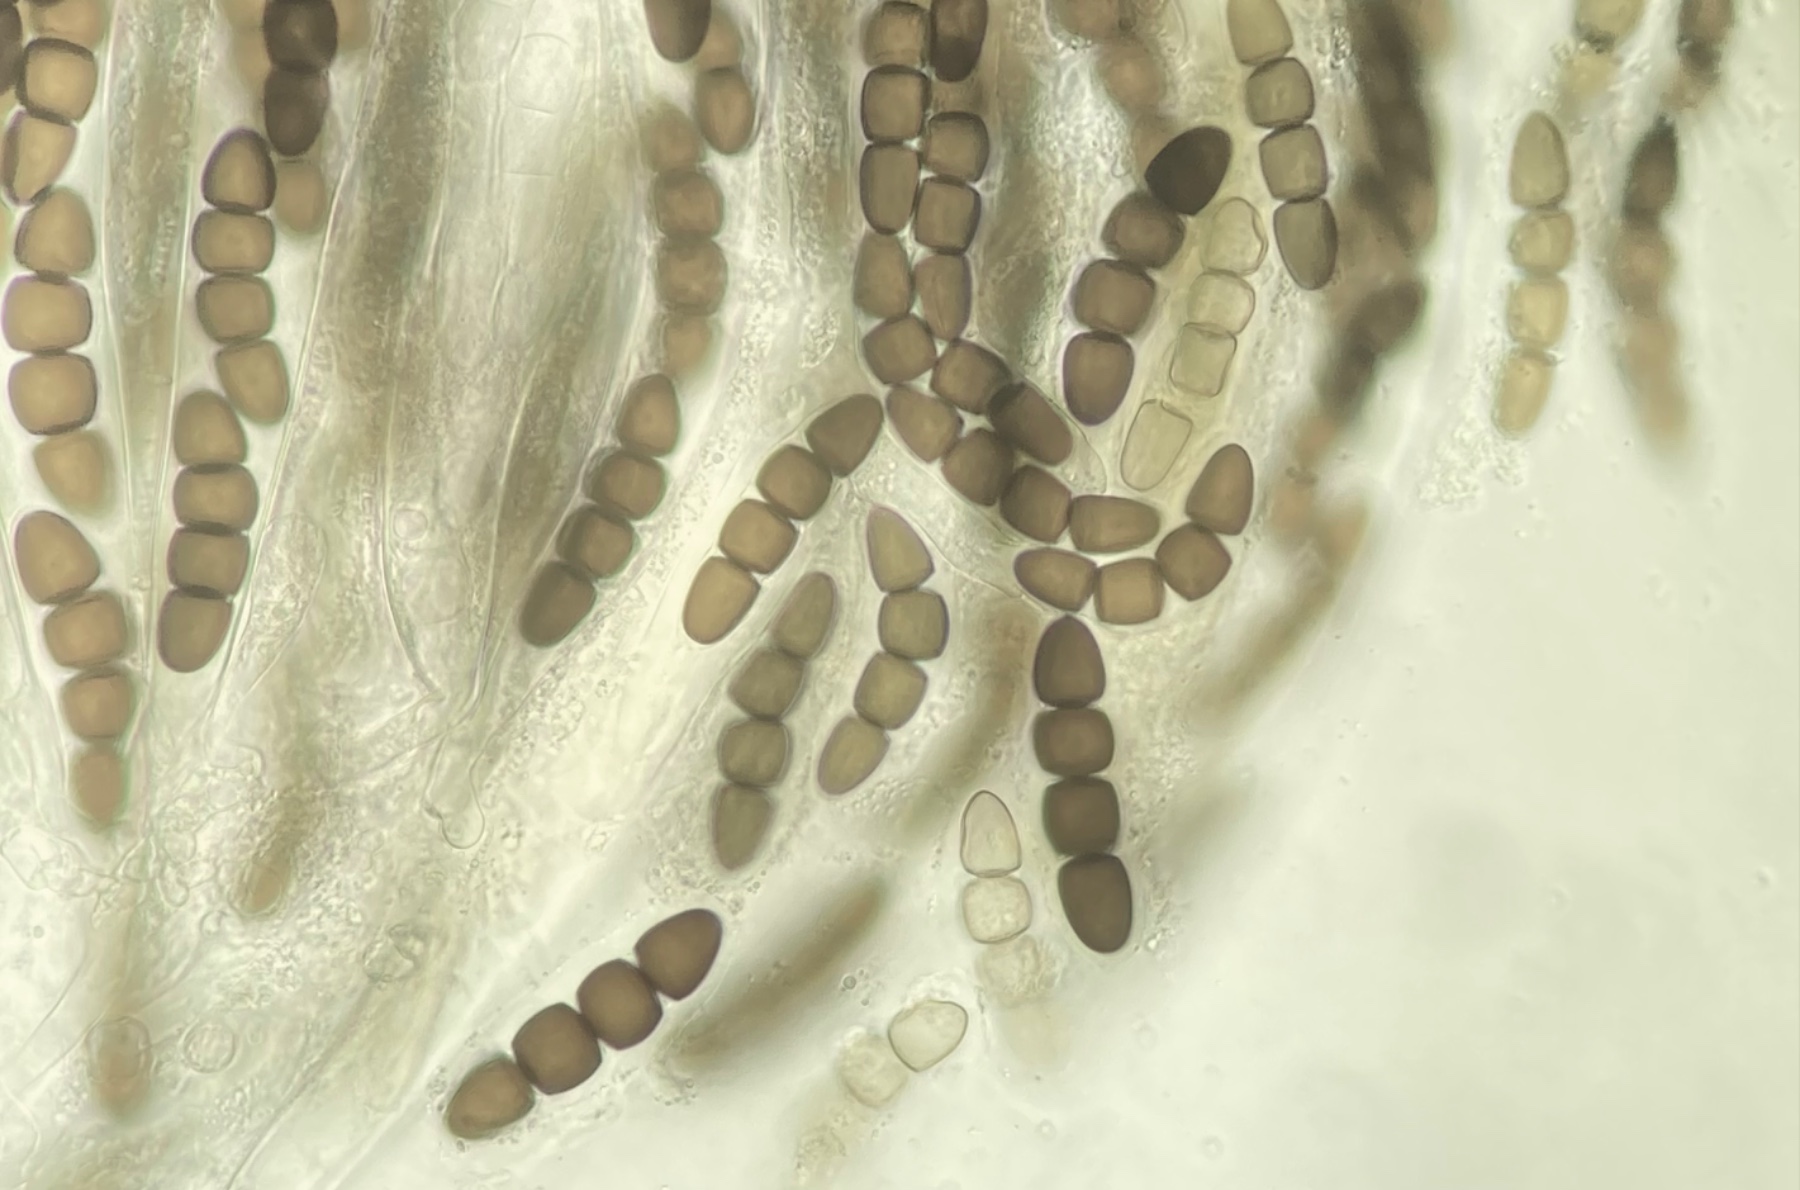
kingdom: Fungi
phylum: Ascomycota
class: Dothideomycetes
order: Pleosporales
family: Sporormiaceae
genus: Sporormiella
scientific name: Sporormiella intermedia
